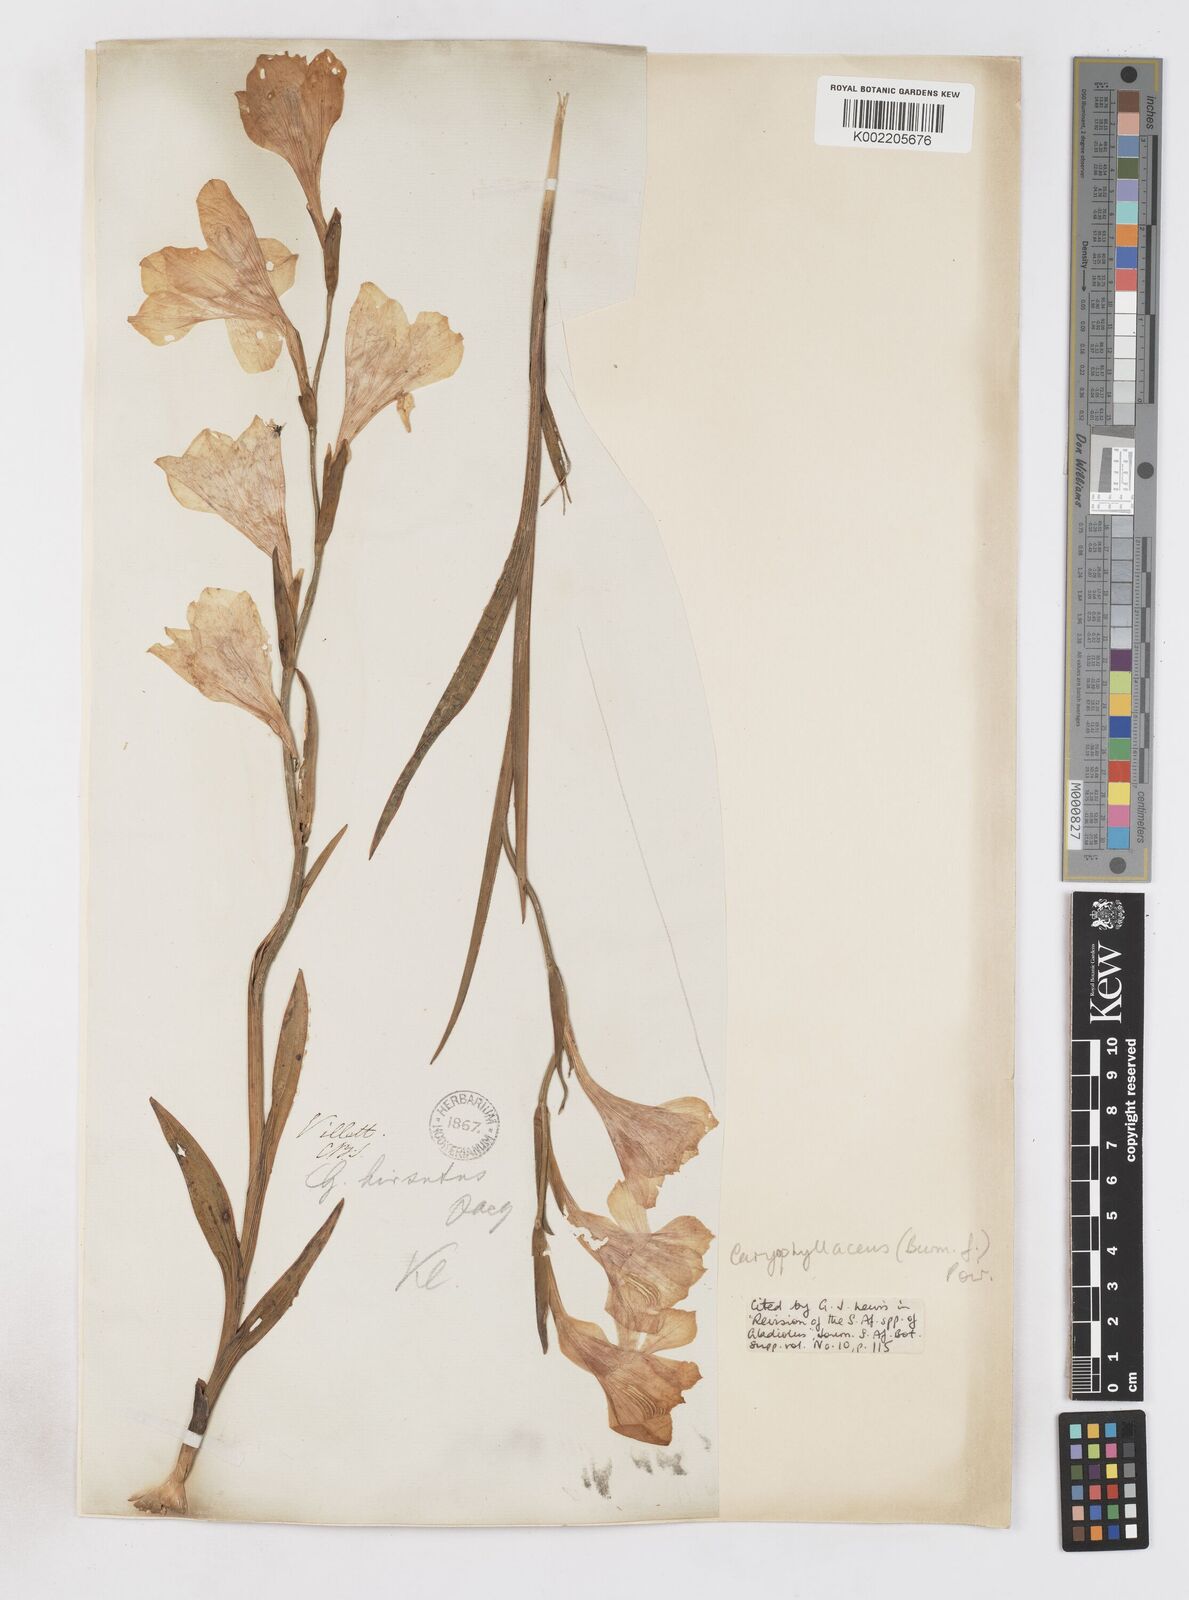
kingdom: Plantae
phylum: Tracheophyta
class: Liliopsida
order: Asparagales
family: Iridaceae
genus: Gladiolus
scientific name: Gladiolus caryophyllaceus
